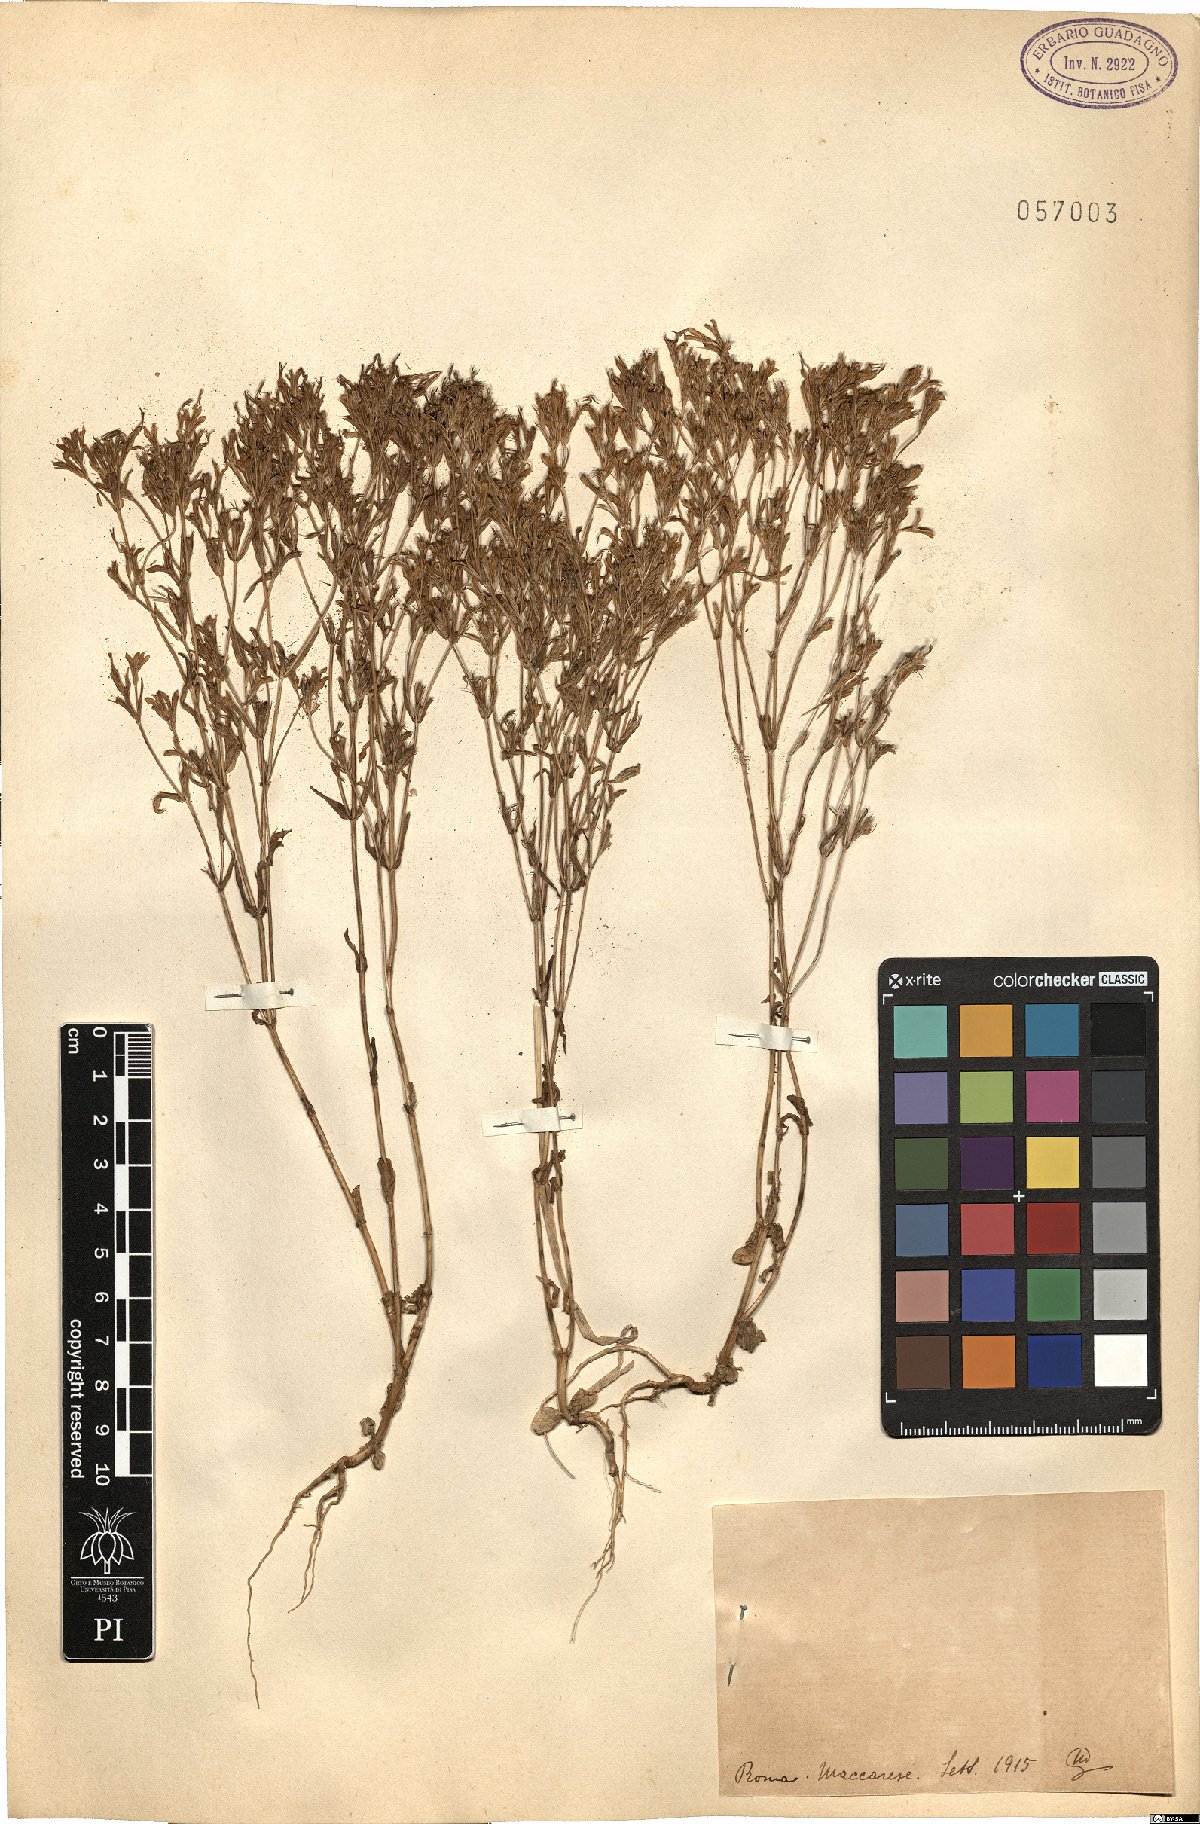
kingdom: Plantae
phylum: Tracheophyta
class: Magnoliopsida
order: Gentianales
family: Gentianaceae
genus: Erythraea
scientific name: Erythraea
